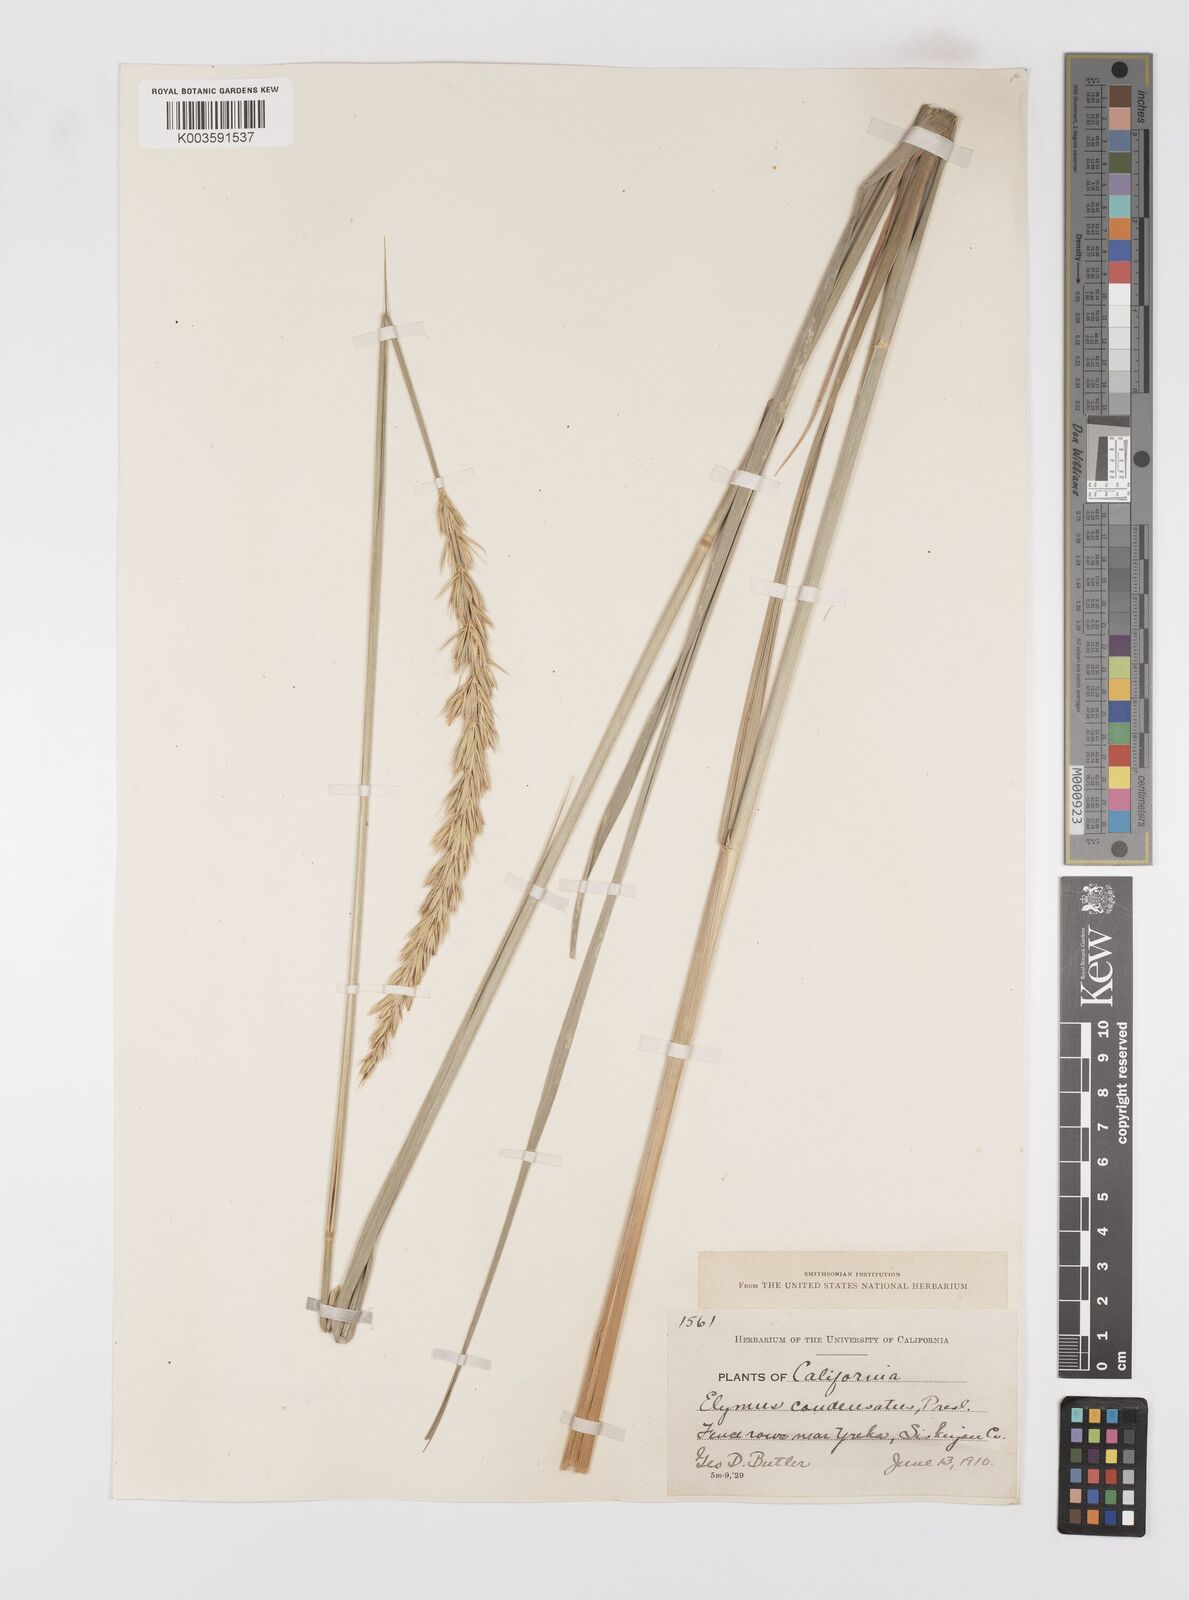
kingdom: Plantae
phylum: Tracheophyta
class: Liliopsida
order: Poales
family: Poaceae
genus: Leymus
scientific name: Leymus condensatus
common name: Giant wild rye
